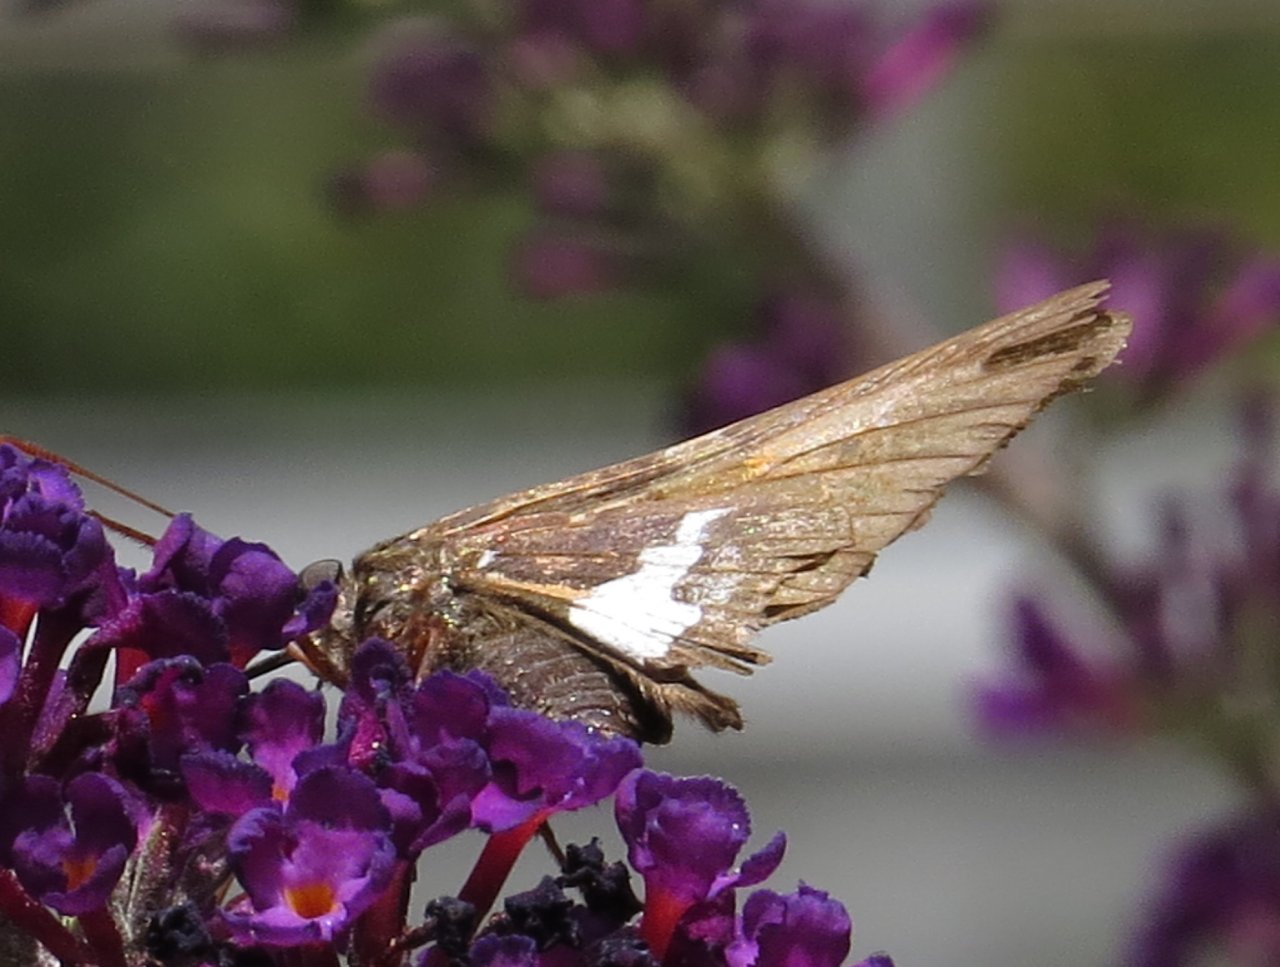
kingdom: Animalia
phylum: Arthropoda
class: Insecta
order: Lepidoptera
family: Hesperiidae
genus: Epargyreus
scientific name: Epargyreus clarus
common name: Silver-spotted Skipper
